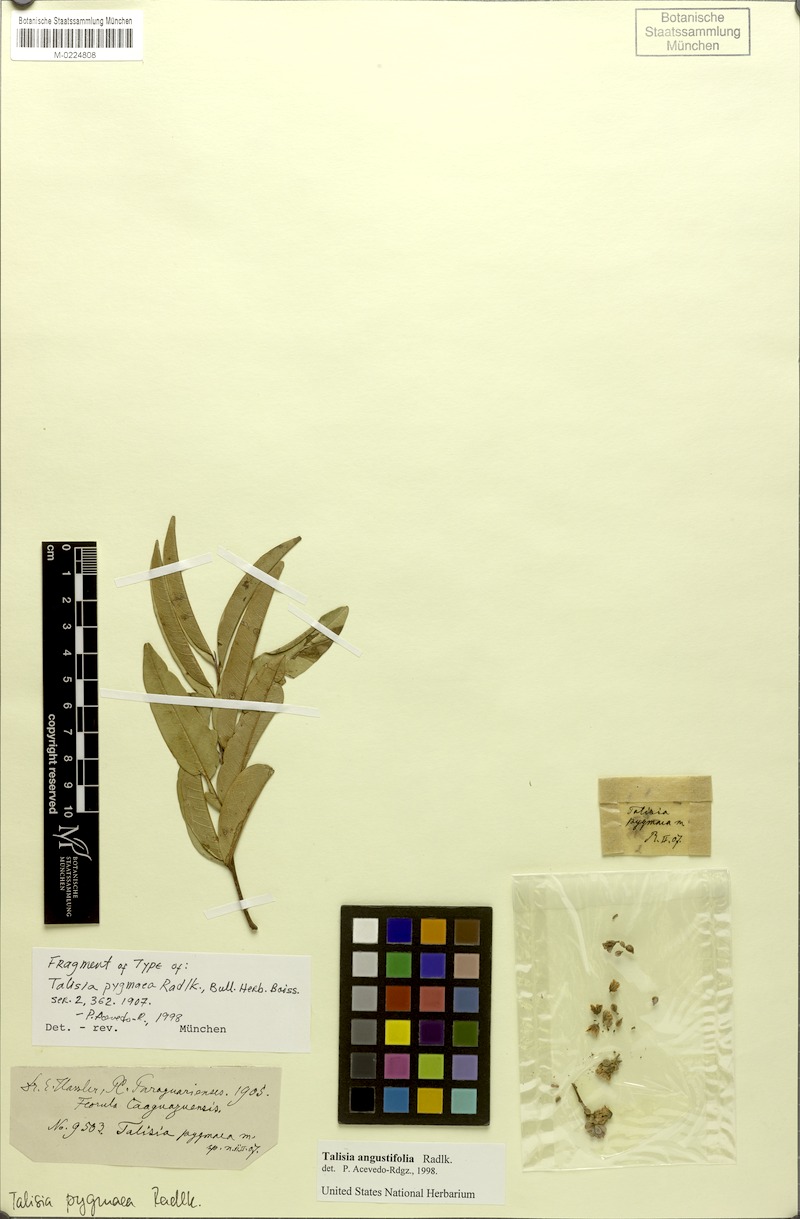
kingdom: Plantae
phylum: Tracheophyta
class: Magnoliopsida
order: Sapindales
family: Sapindaceae
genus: Talisia
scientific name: Talisia angustifolia
